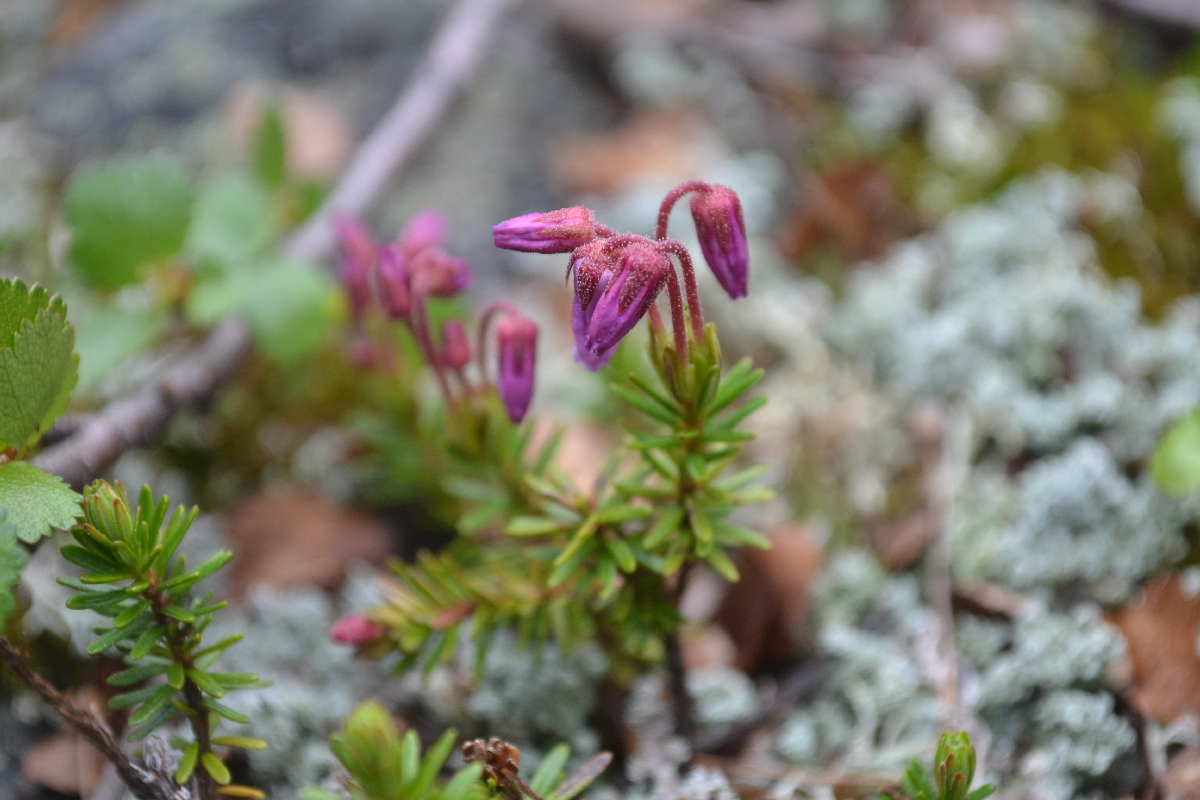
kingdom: Plantae
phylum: Tracheophyta
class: Magnoliopsida
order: Ericales
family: Ericaceae
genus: Phyllodoce
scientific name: Phyllodoce caerulea
